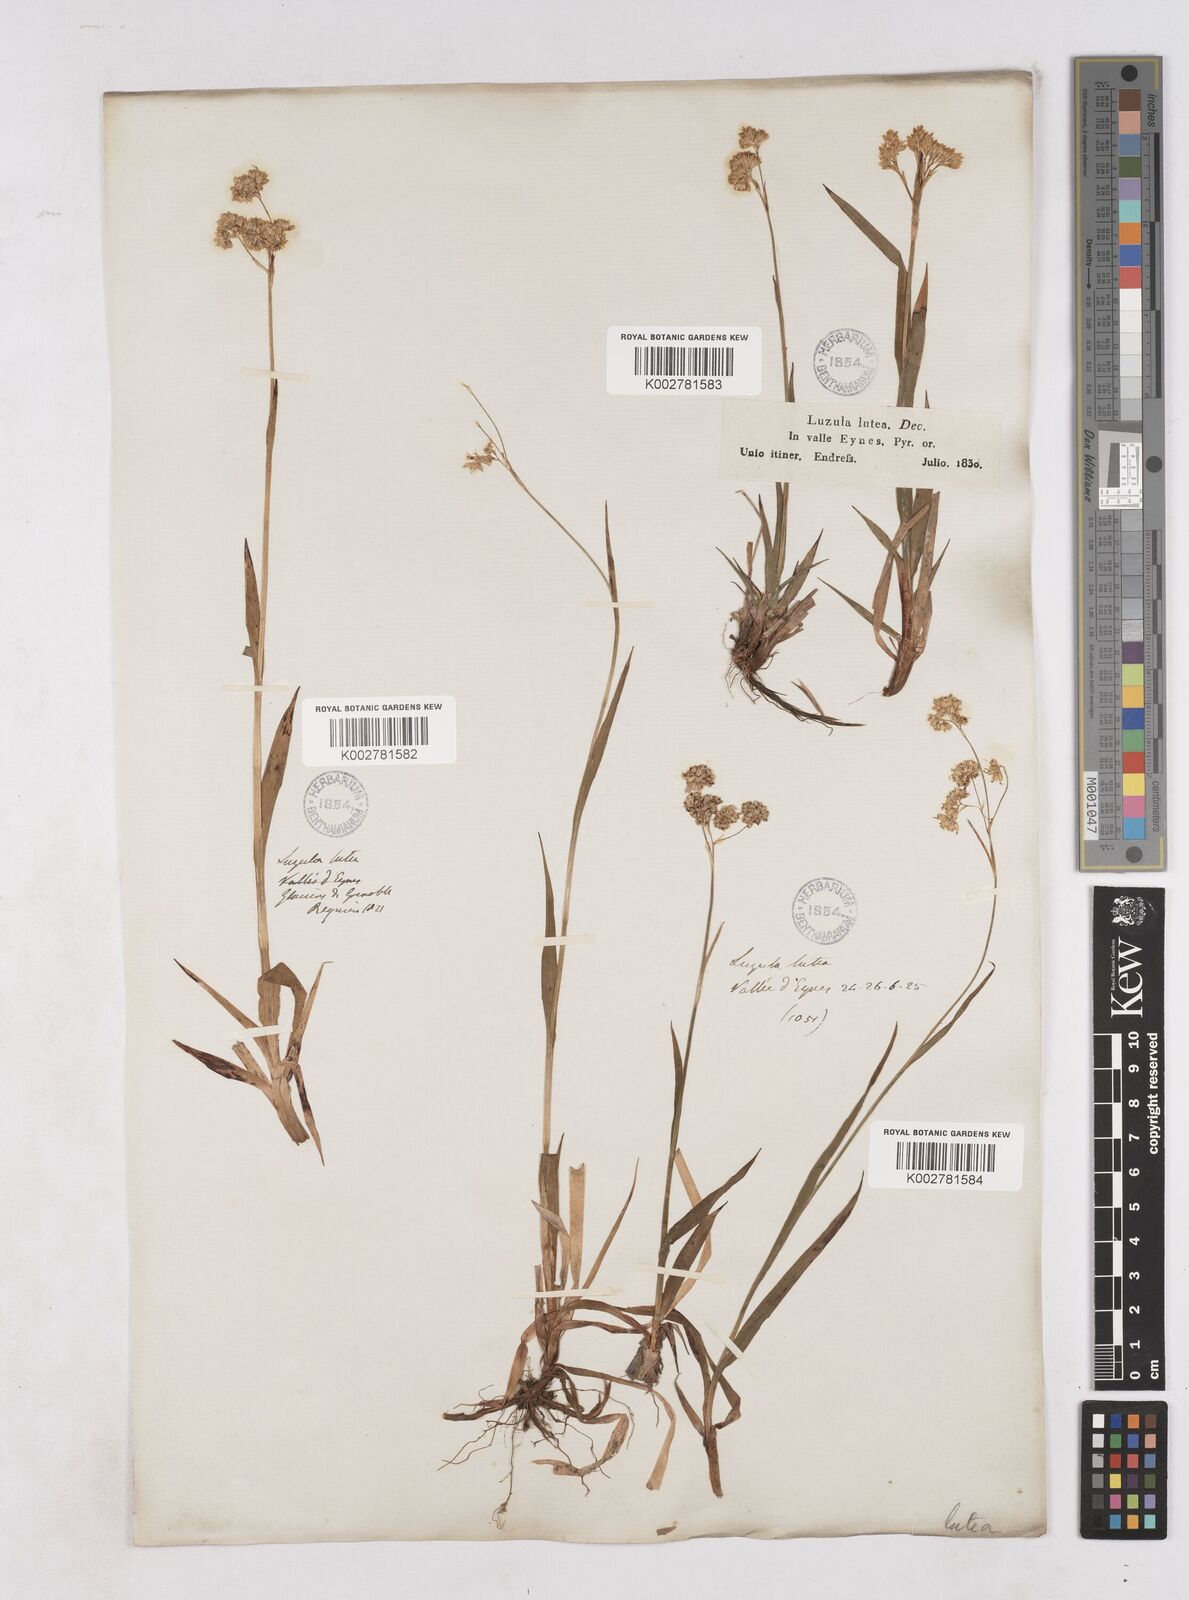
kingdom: Plantae
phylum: Tracheophyta
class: Liliopsida
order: Poales
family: Juncaceae
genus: Luzula
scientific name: Luzula lutea
